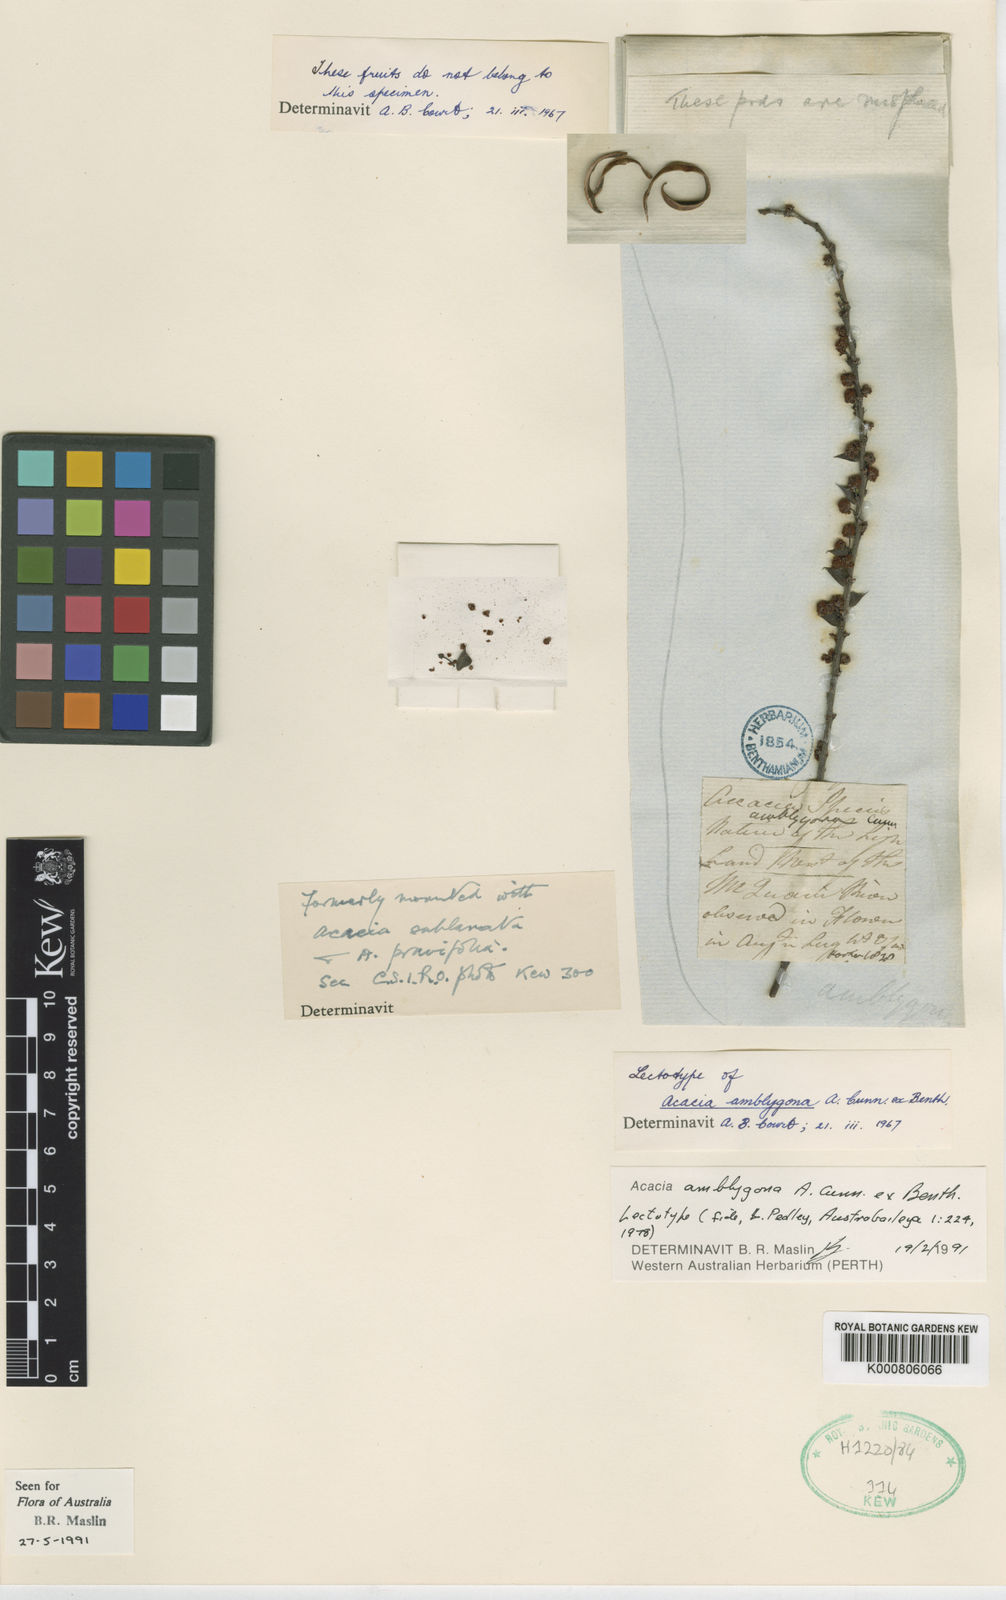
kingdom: Plantae
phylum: Tracheophyta
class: Magnoliopsida
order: Fabales
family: Fabaceae
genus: Acacia
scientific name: Acacia amblygona
